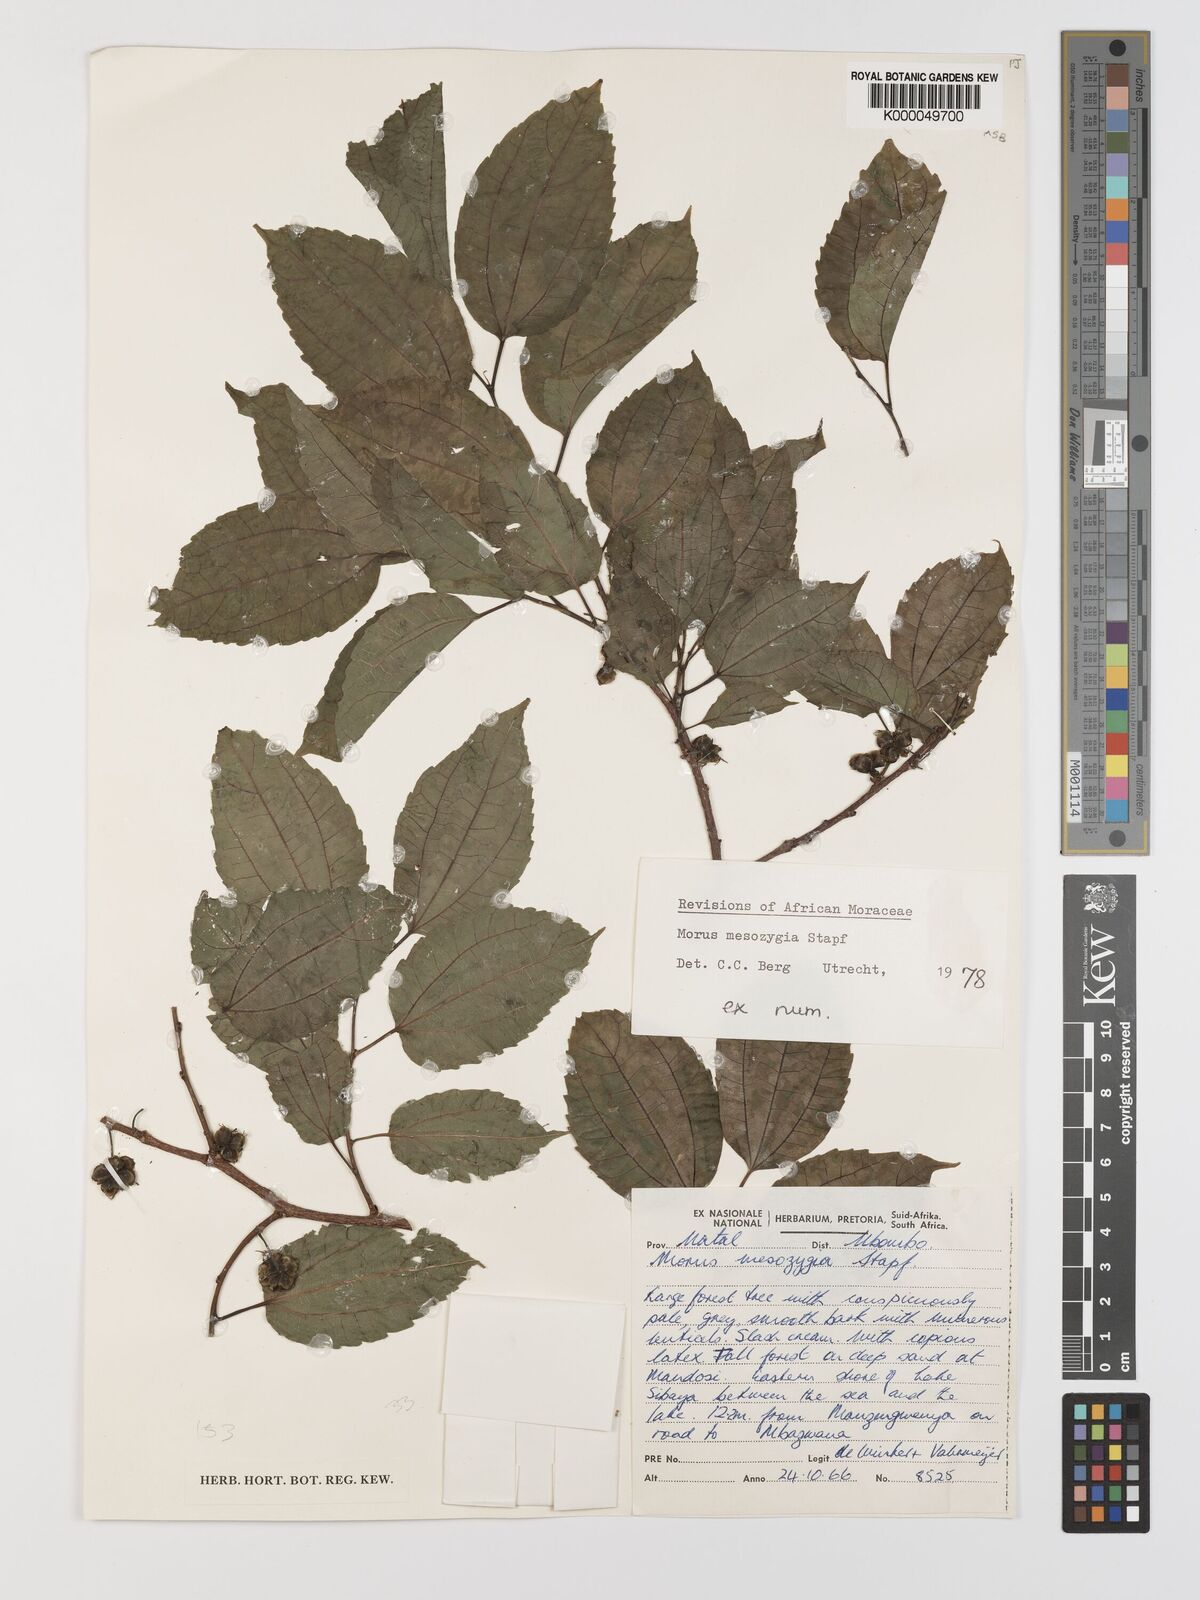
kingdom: Plantae
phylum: Tracheophyta
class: Magnoliopsida
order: Rosales
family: Moraceae
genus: Afromorus
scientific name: Afromorus mesozygia
